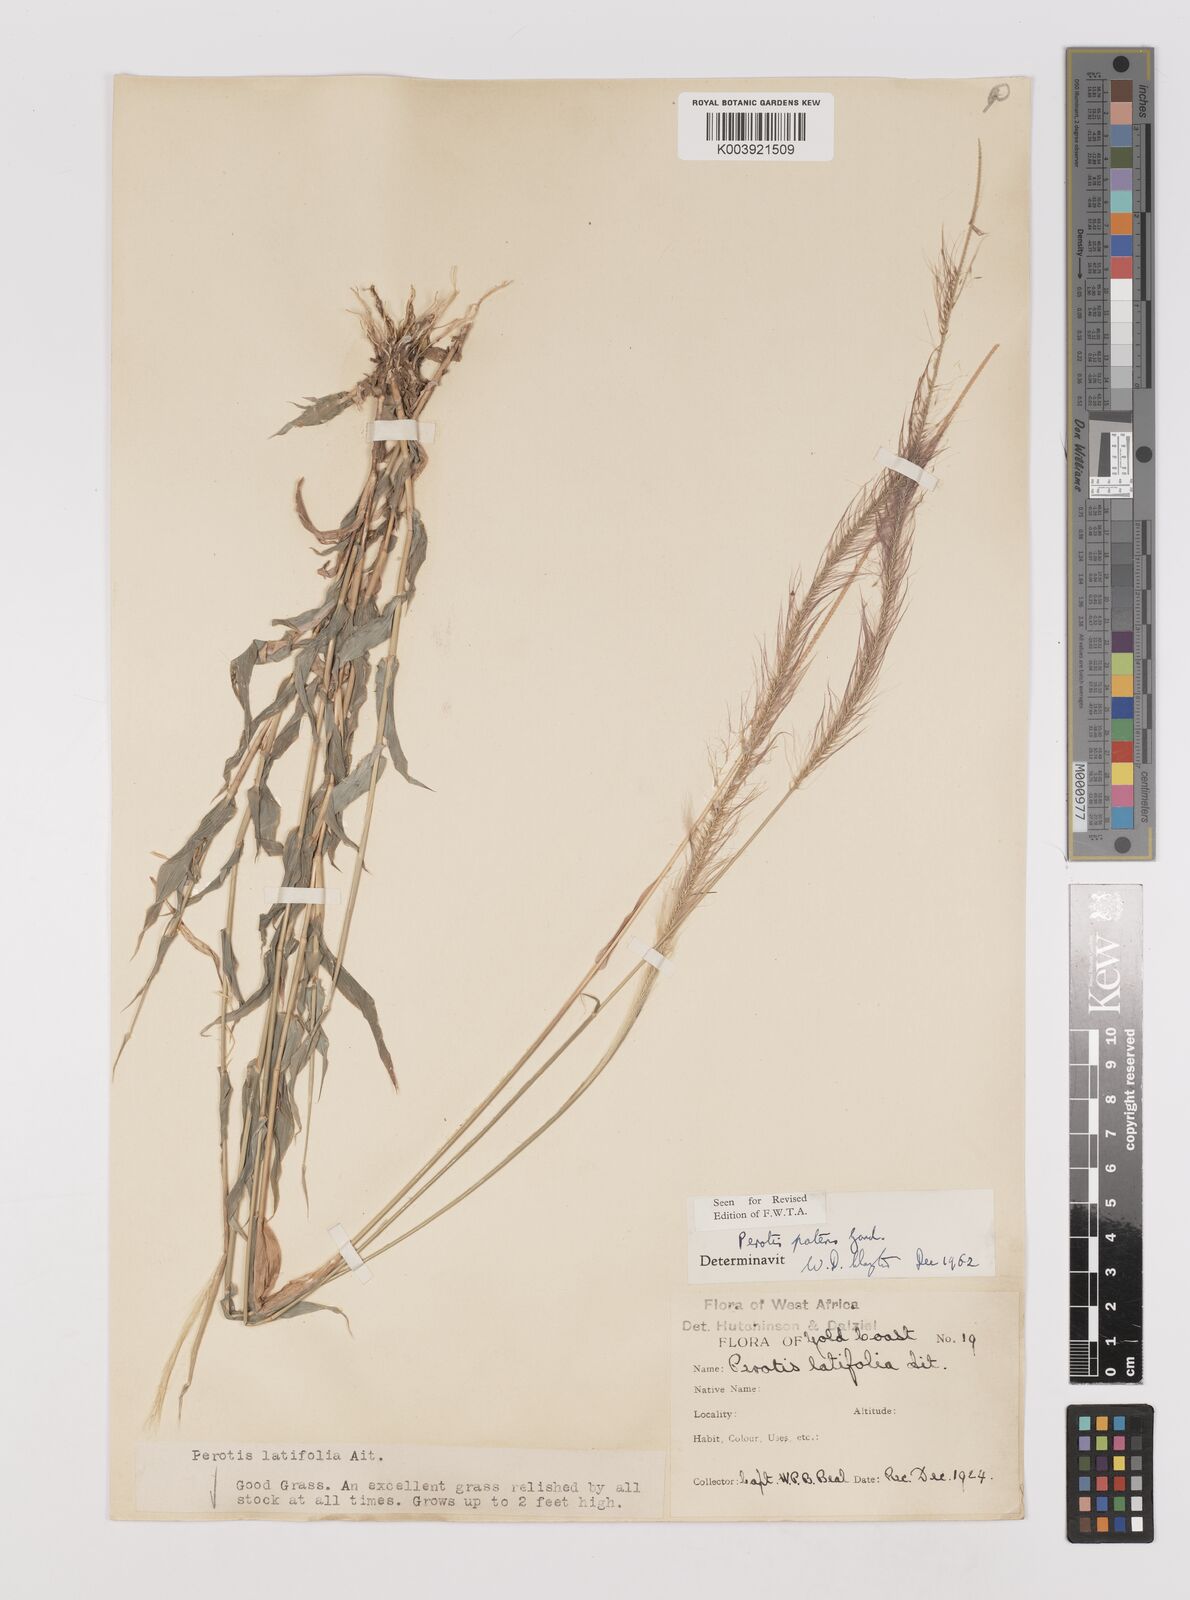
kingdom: Plantae
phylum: Tracheophyta
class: Liliopsida
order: Poales
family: Poaceae
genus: Perotis
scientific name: Perotis patens
